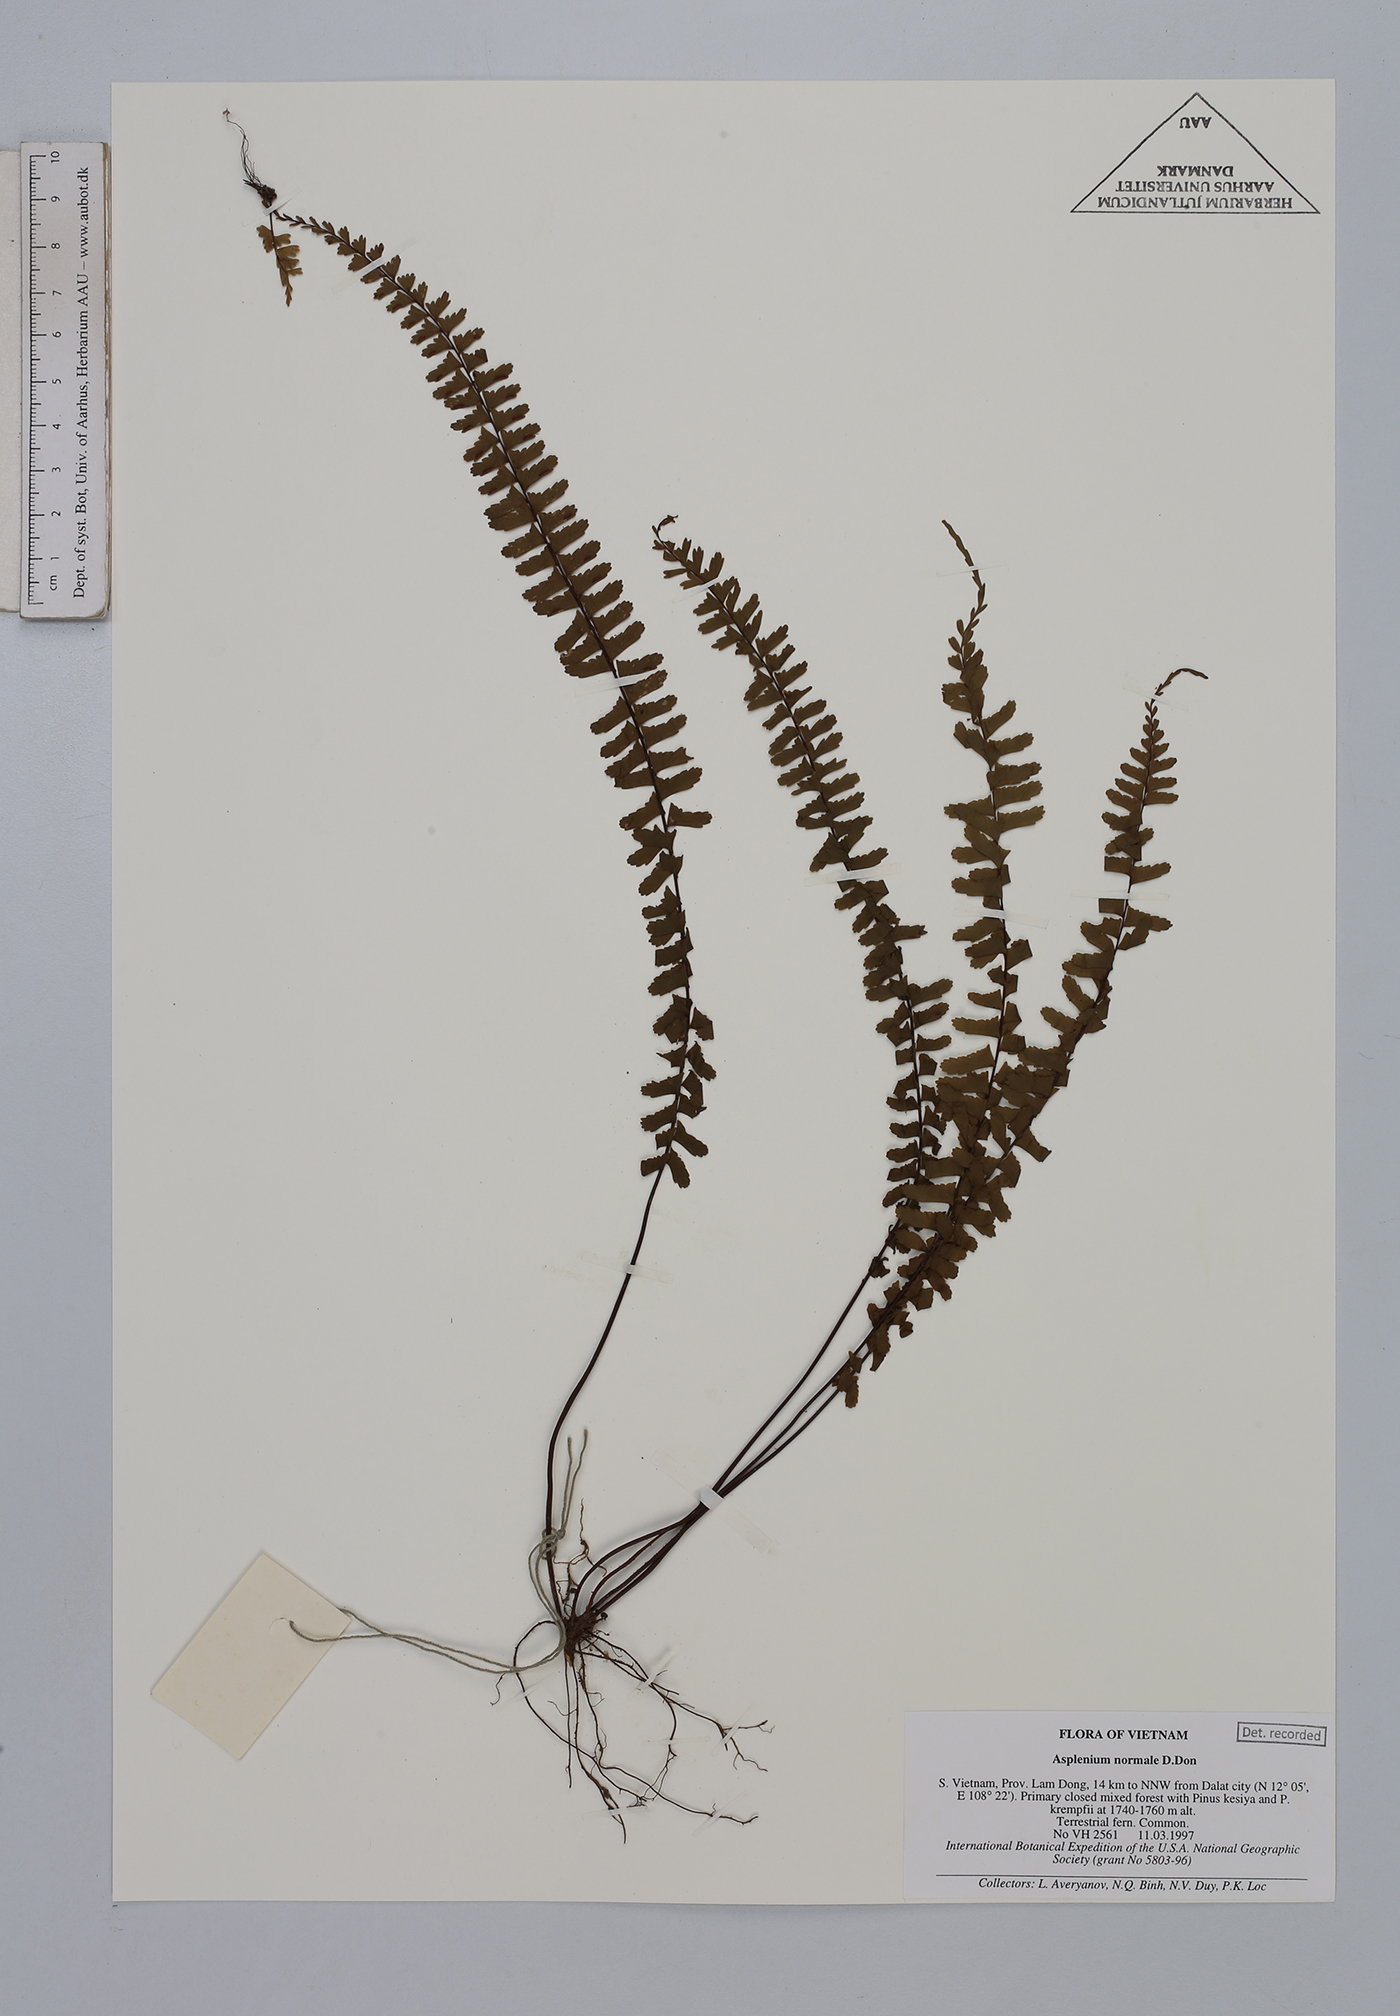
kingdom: Plantae
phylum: Tracheophyta
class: Polypodiopsida
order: Polypodiales
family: Aspleniaceae
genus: Asplenium
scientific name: Asplenium normale
